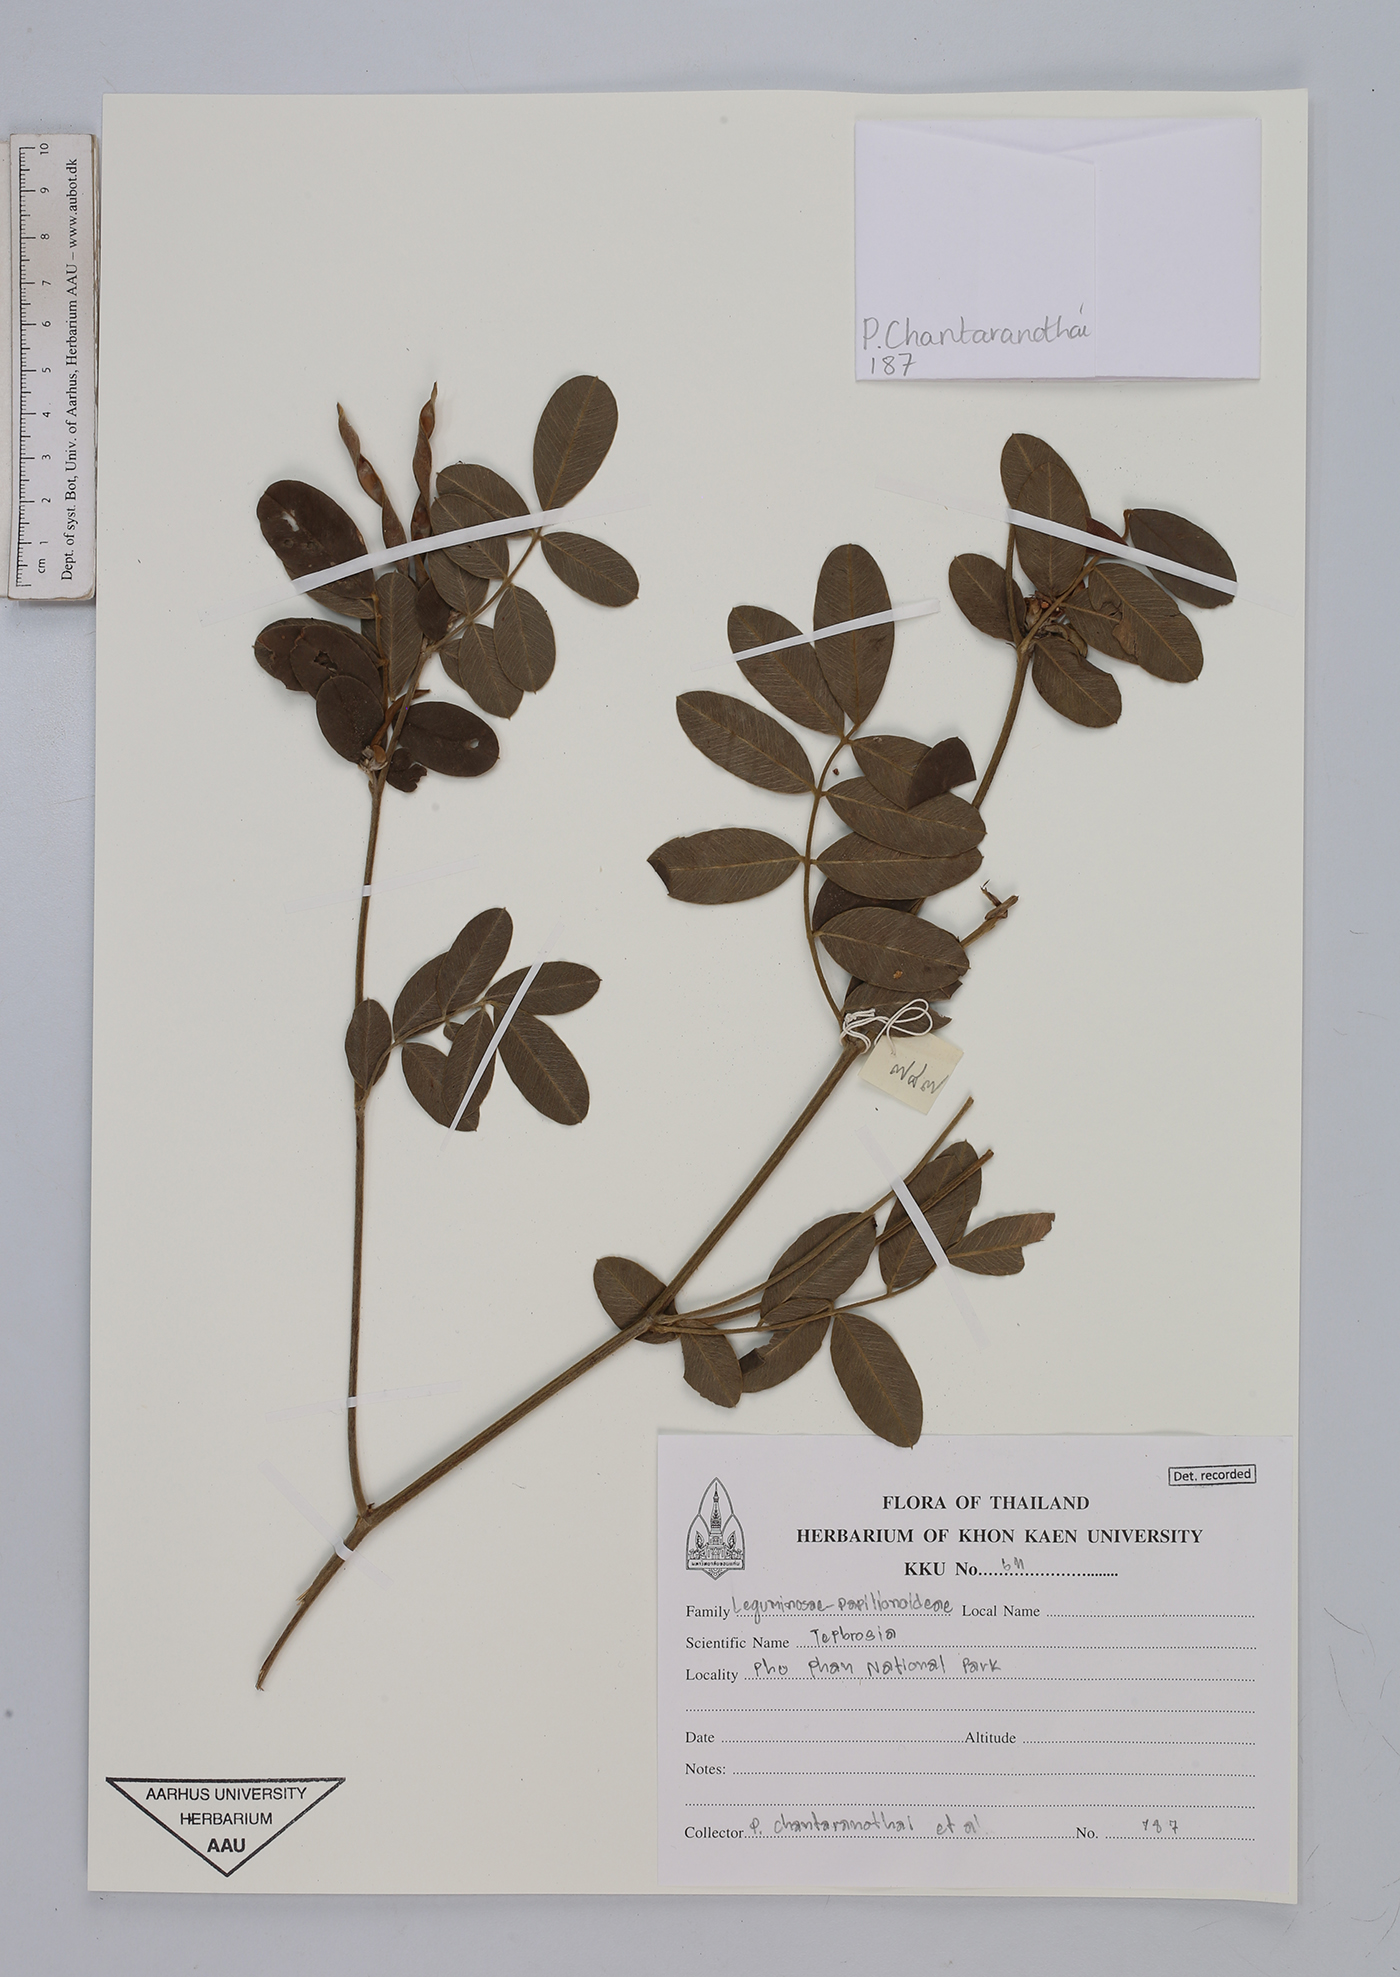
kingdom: Plantae
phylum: Tracheophyta
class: Magnoliopsida
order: Fabales
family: Fabaceae
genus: Tephrosia
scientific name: Tephrosia
